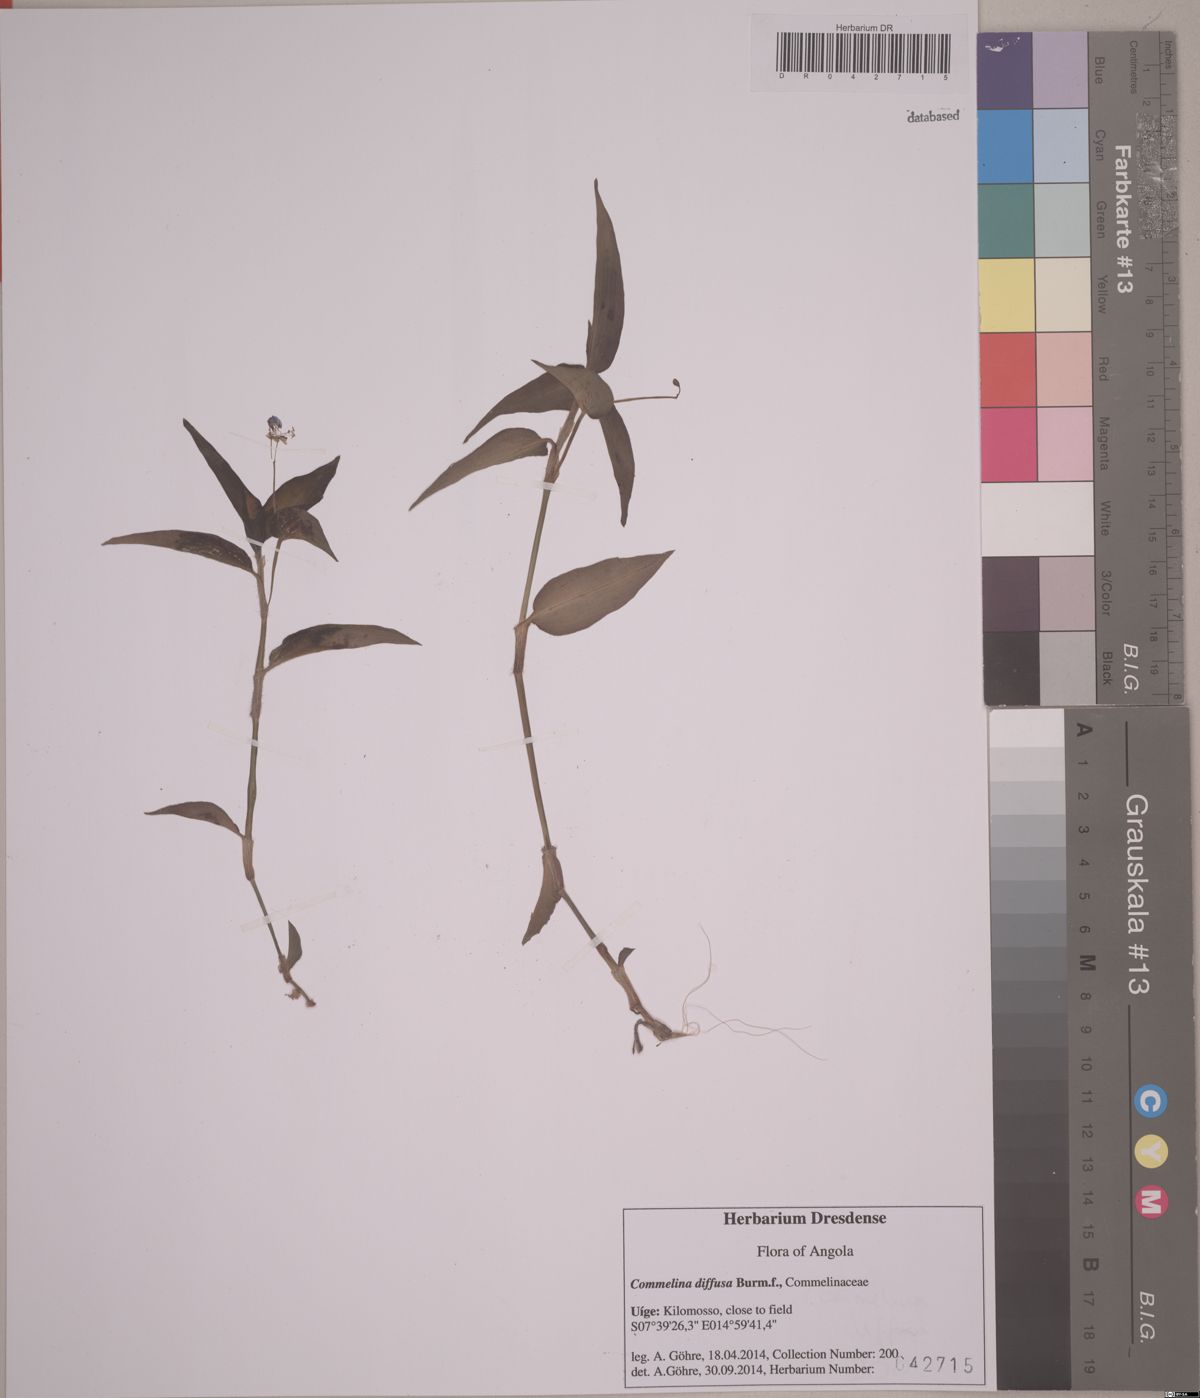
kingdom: Plantae
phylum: Tracheophyta
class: Liliopsida
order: Commelinales
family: Commelinaceae
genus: Commelina
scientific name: Commelina diffusa
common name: Climbing dayflower
